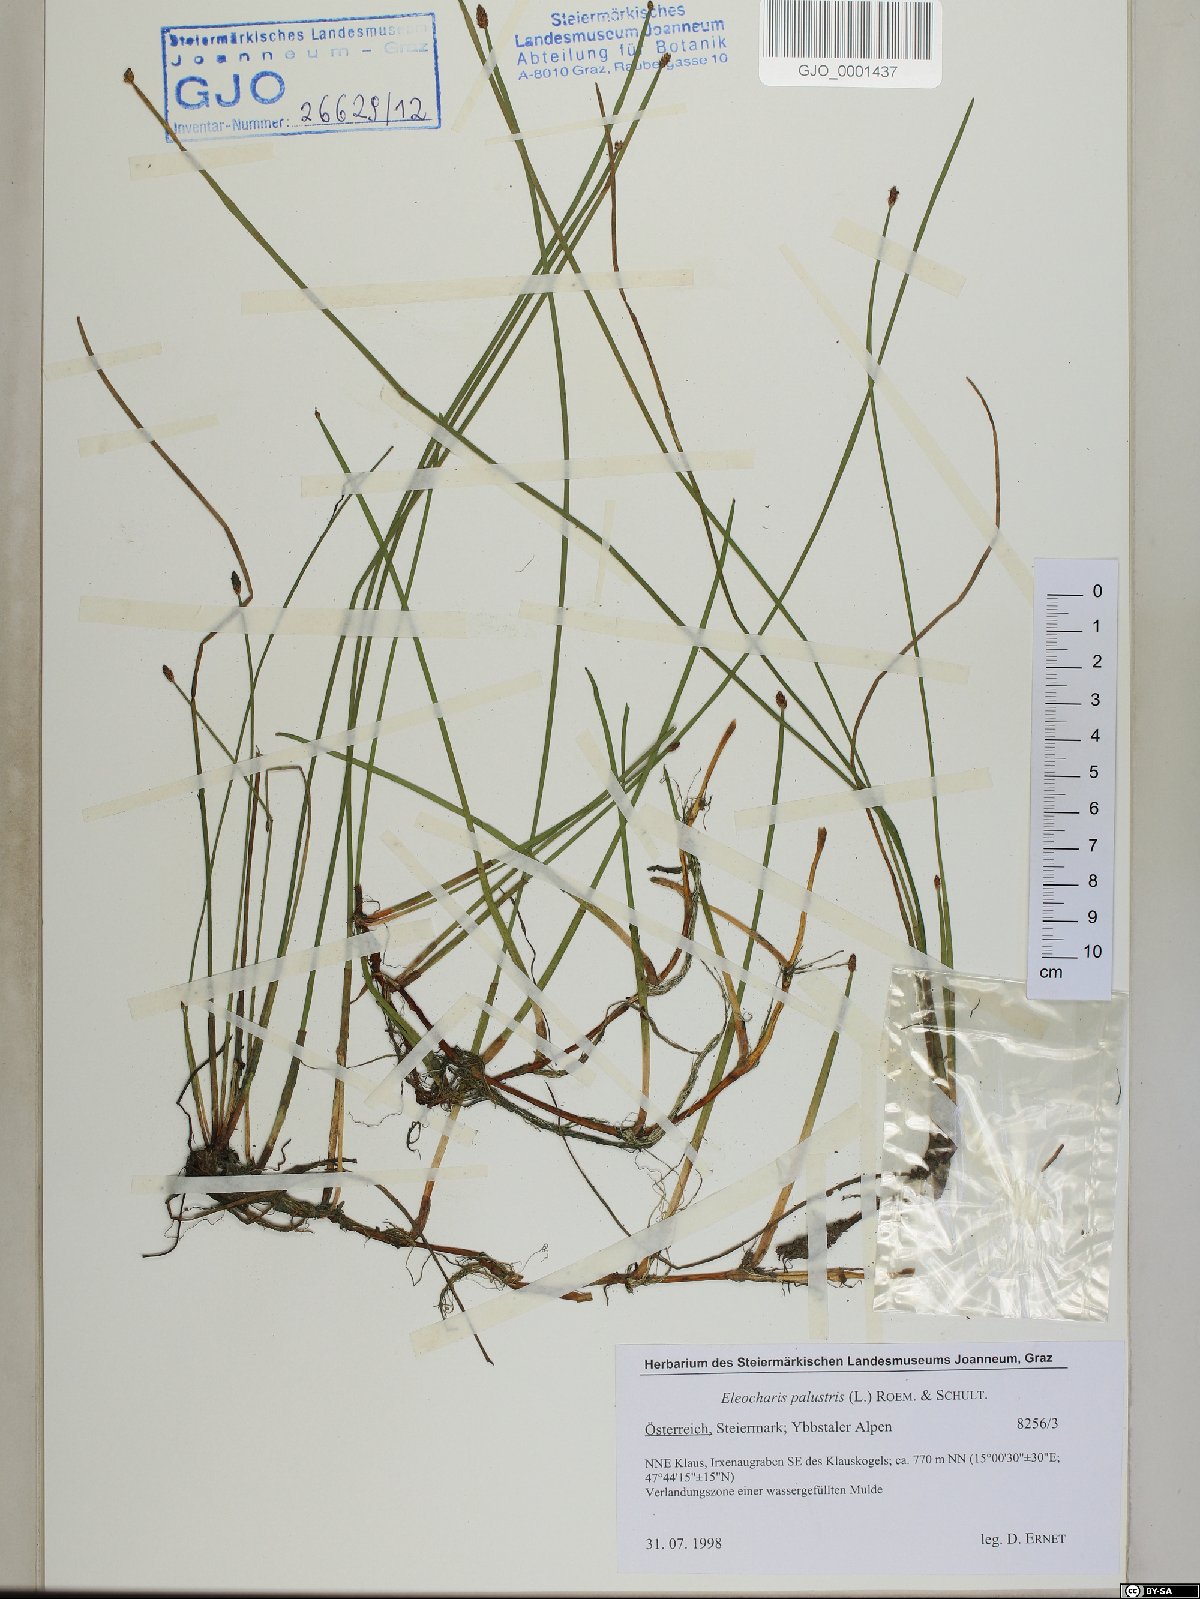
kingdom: Plantae
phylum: Tracheophyta
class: Liliopsida
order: Poales
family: Cyperaceae
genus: Eleocharis
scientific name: Eleocharis palustris
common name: Common spike-rush
